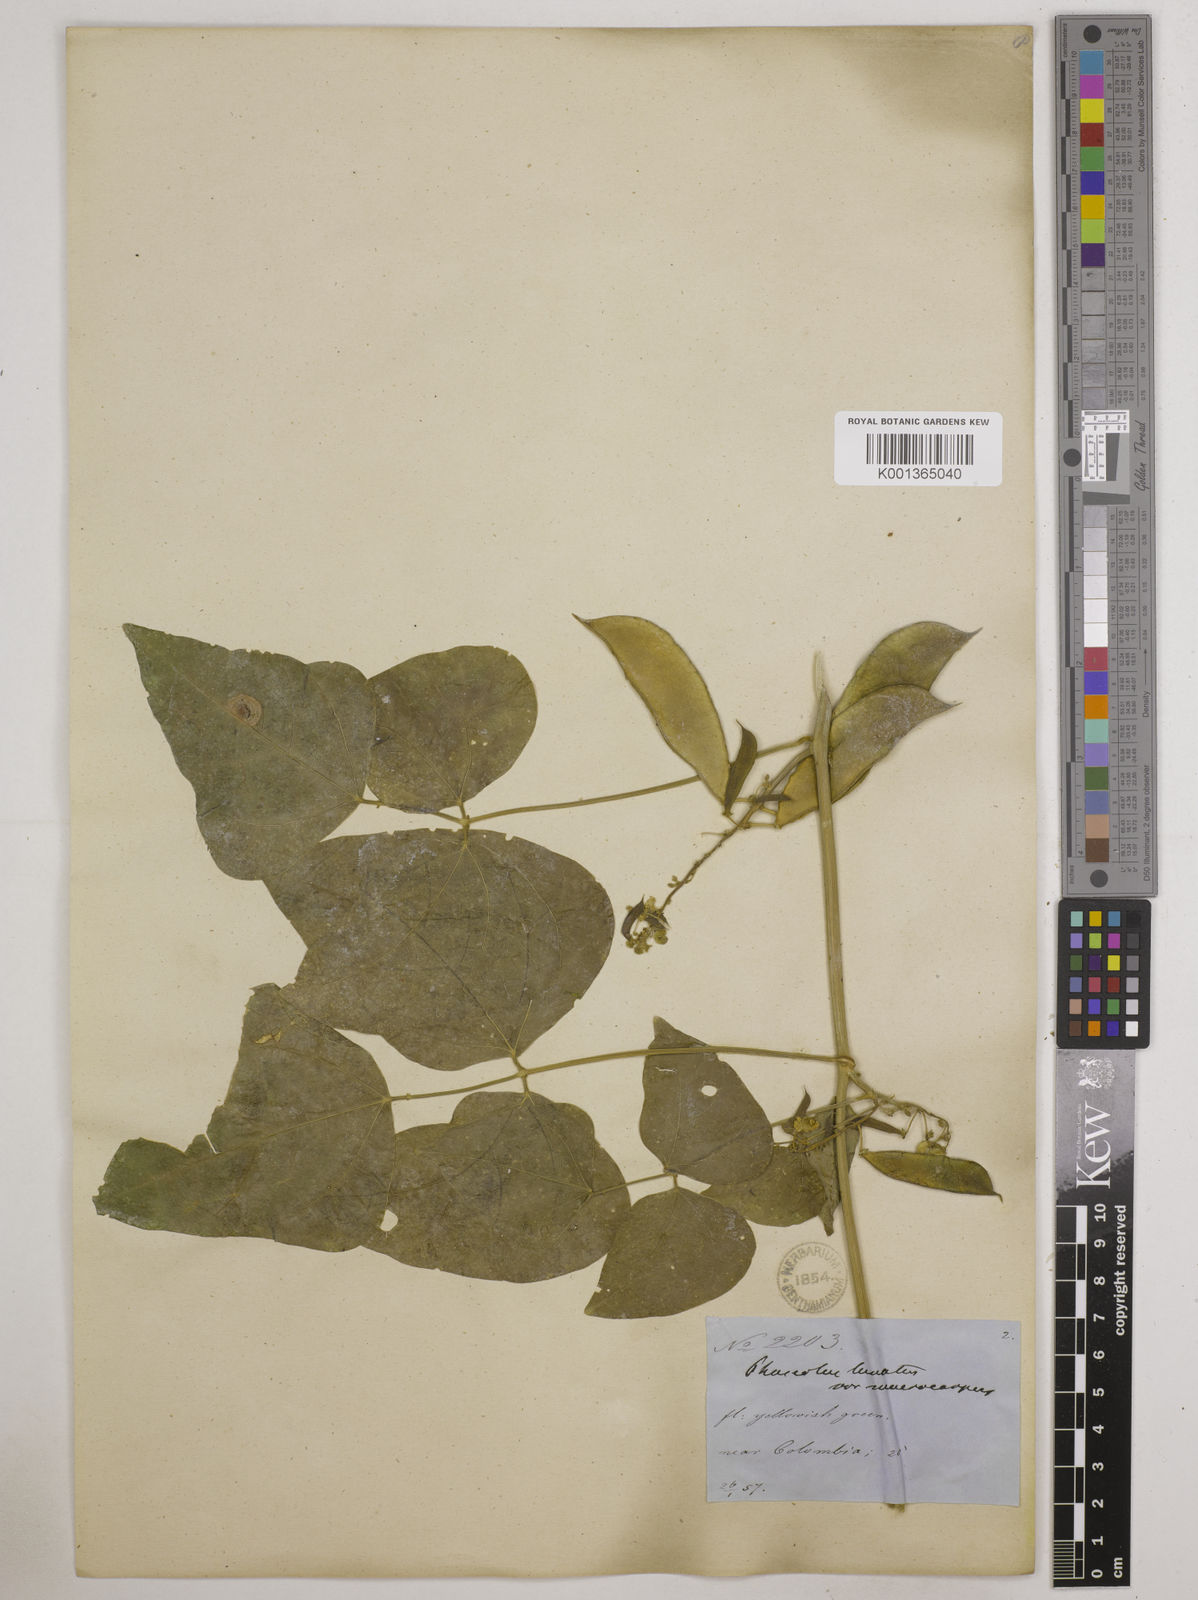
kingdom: Plantae
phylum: Tracheophyta
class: Magnoliopsida
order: Fabales
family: Fabaceae
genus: Phaseolus
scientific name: Phaseolus lunatus
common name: Sieva bean
